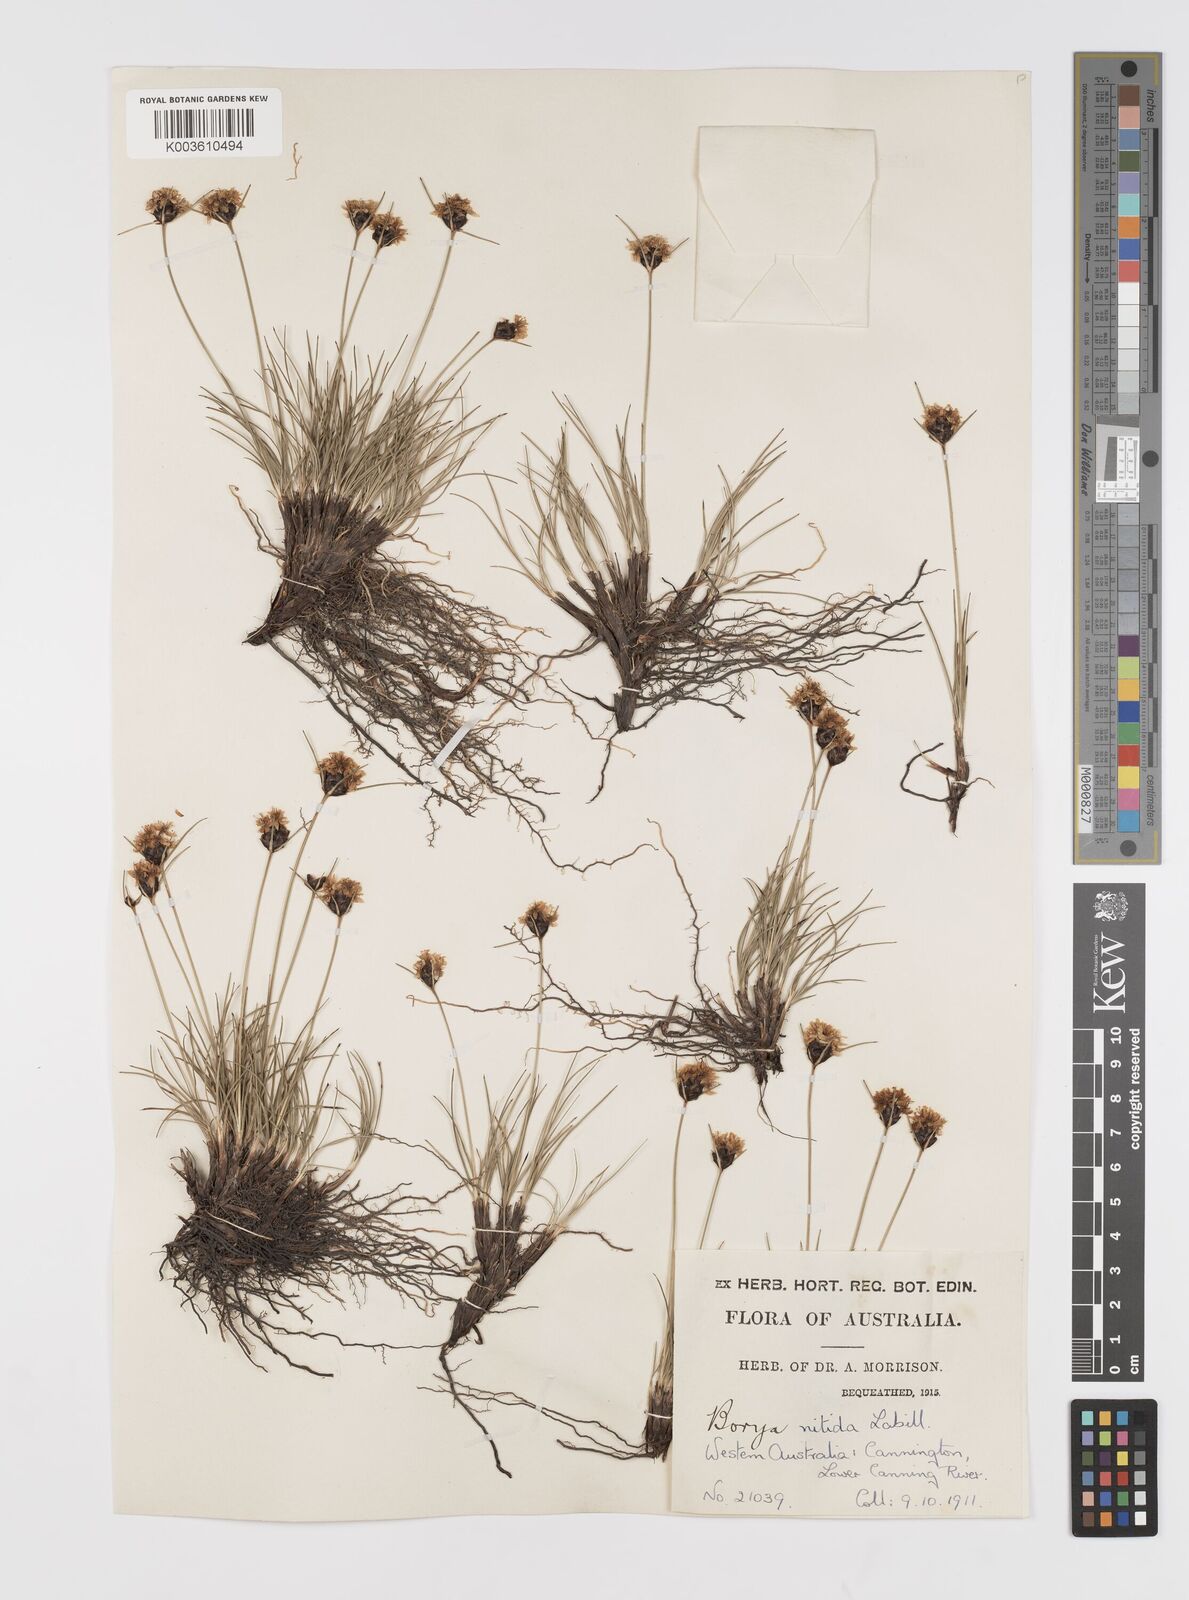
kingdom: Plantae
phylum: Tracheophyta
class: Liliopsida
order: Asparagales
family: Boryaceae
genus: Borya
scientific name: Borya nitida
